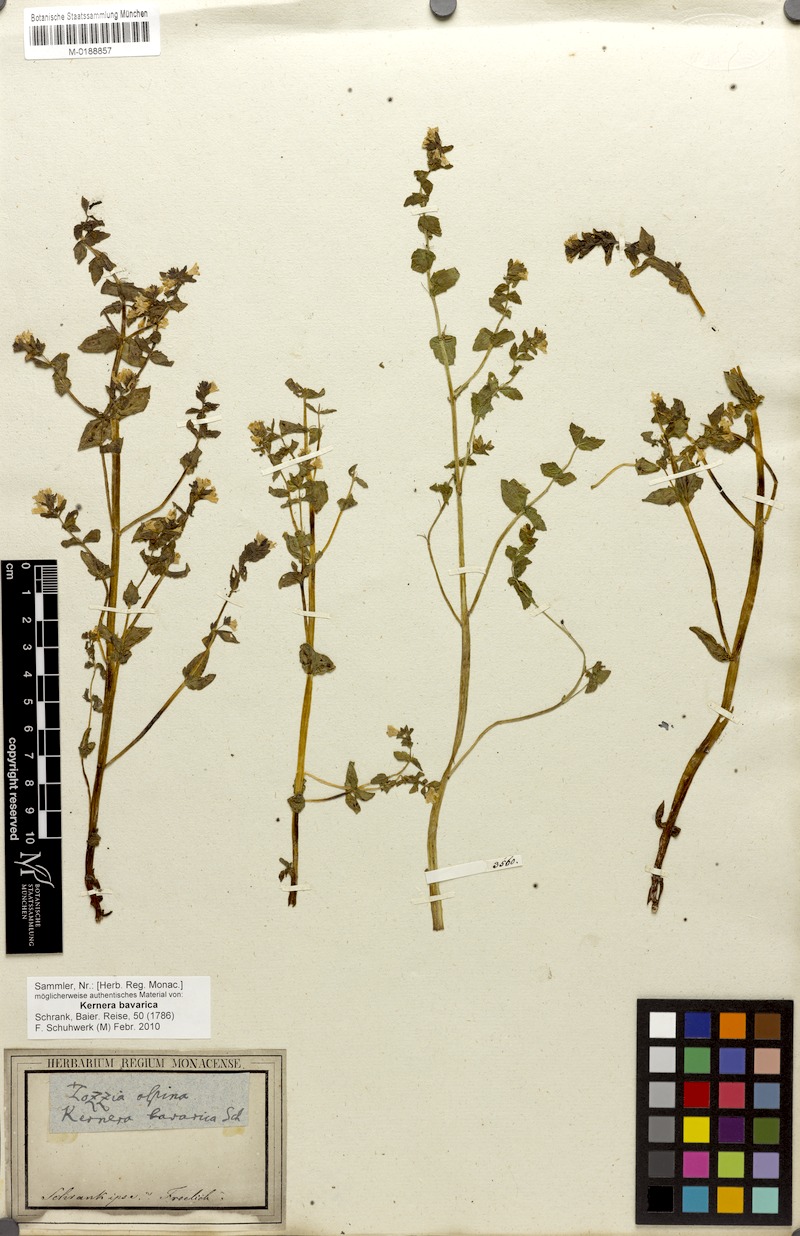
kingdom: Plantae
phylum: Tracheophyta
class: Magnoliopsida
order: Lamiales
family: Orobanchaceae
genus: Tozzia
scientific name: Tozzia alpina
